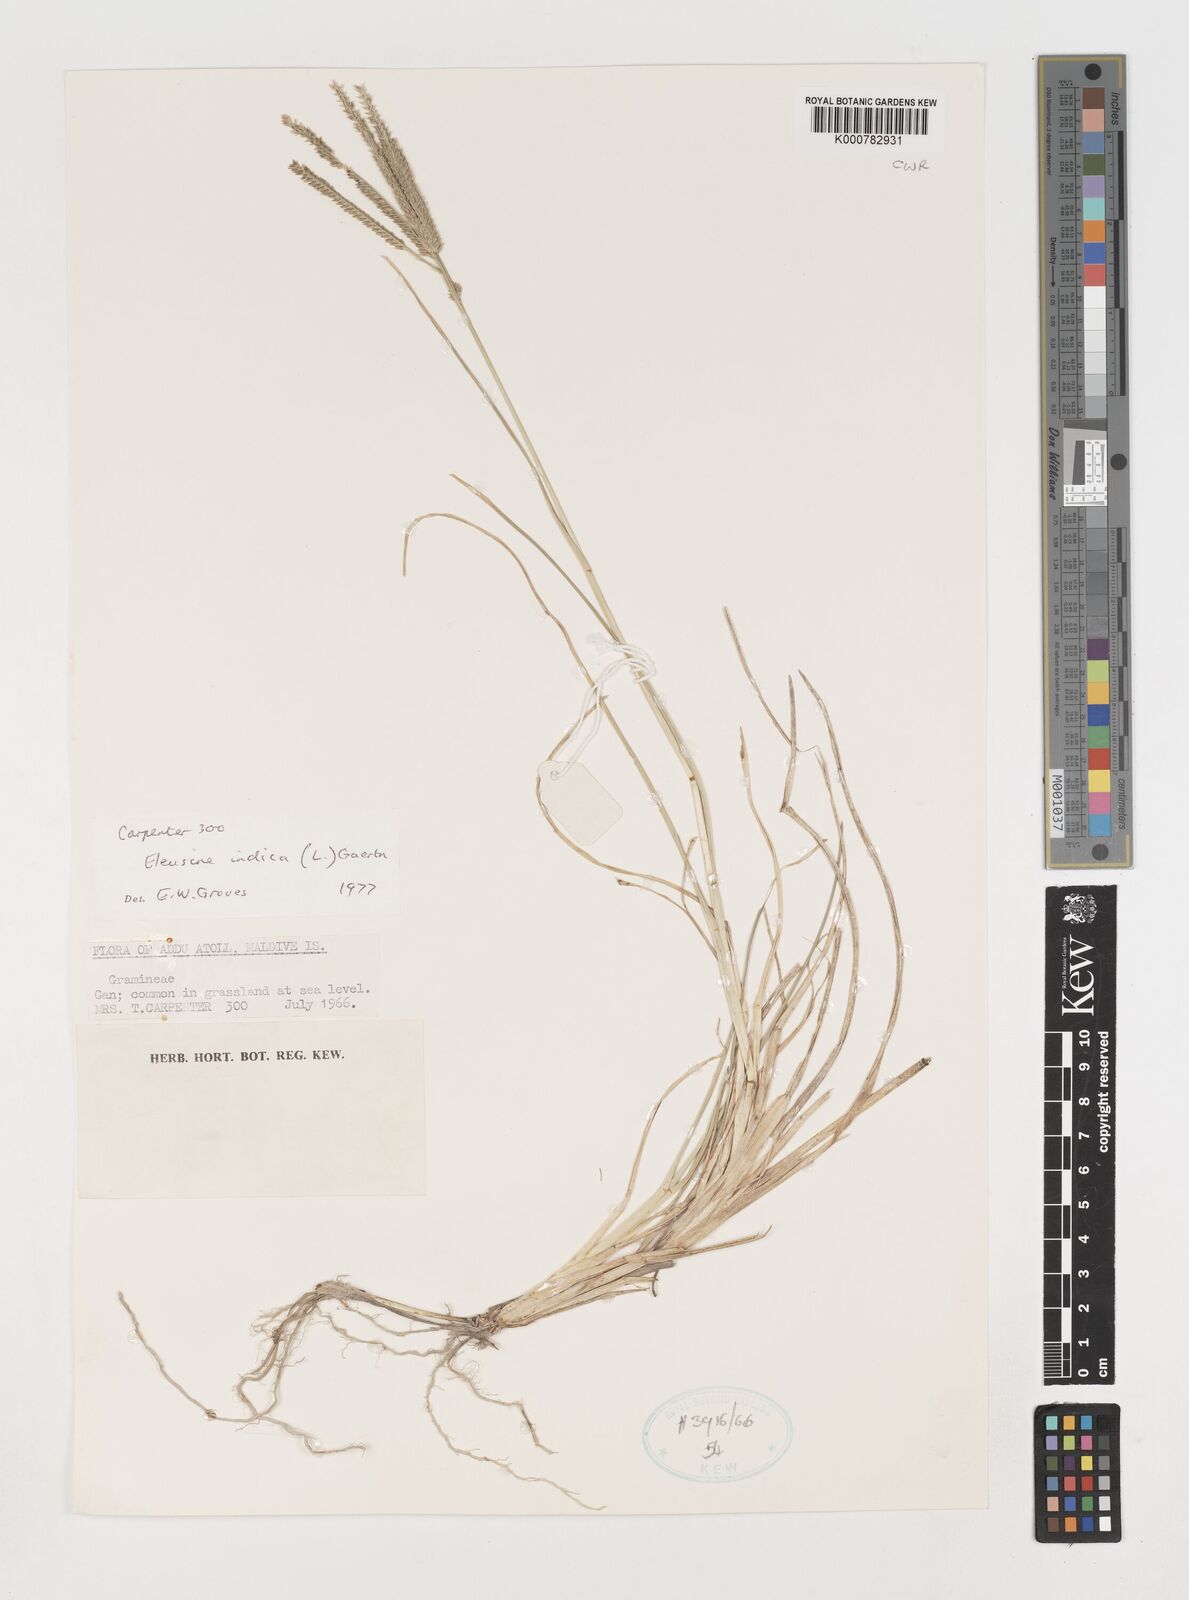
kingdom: Plantae
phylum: Tracheophyta
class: Liliopsida
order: Poales
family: Poaceae
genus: Eleusine
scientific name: Eleusine indica
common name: Yard-grass
